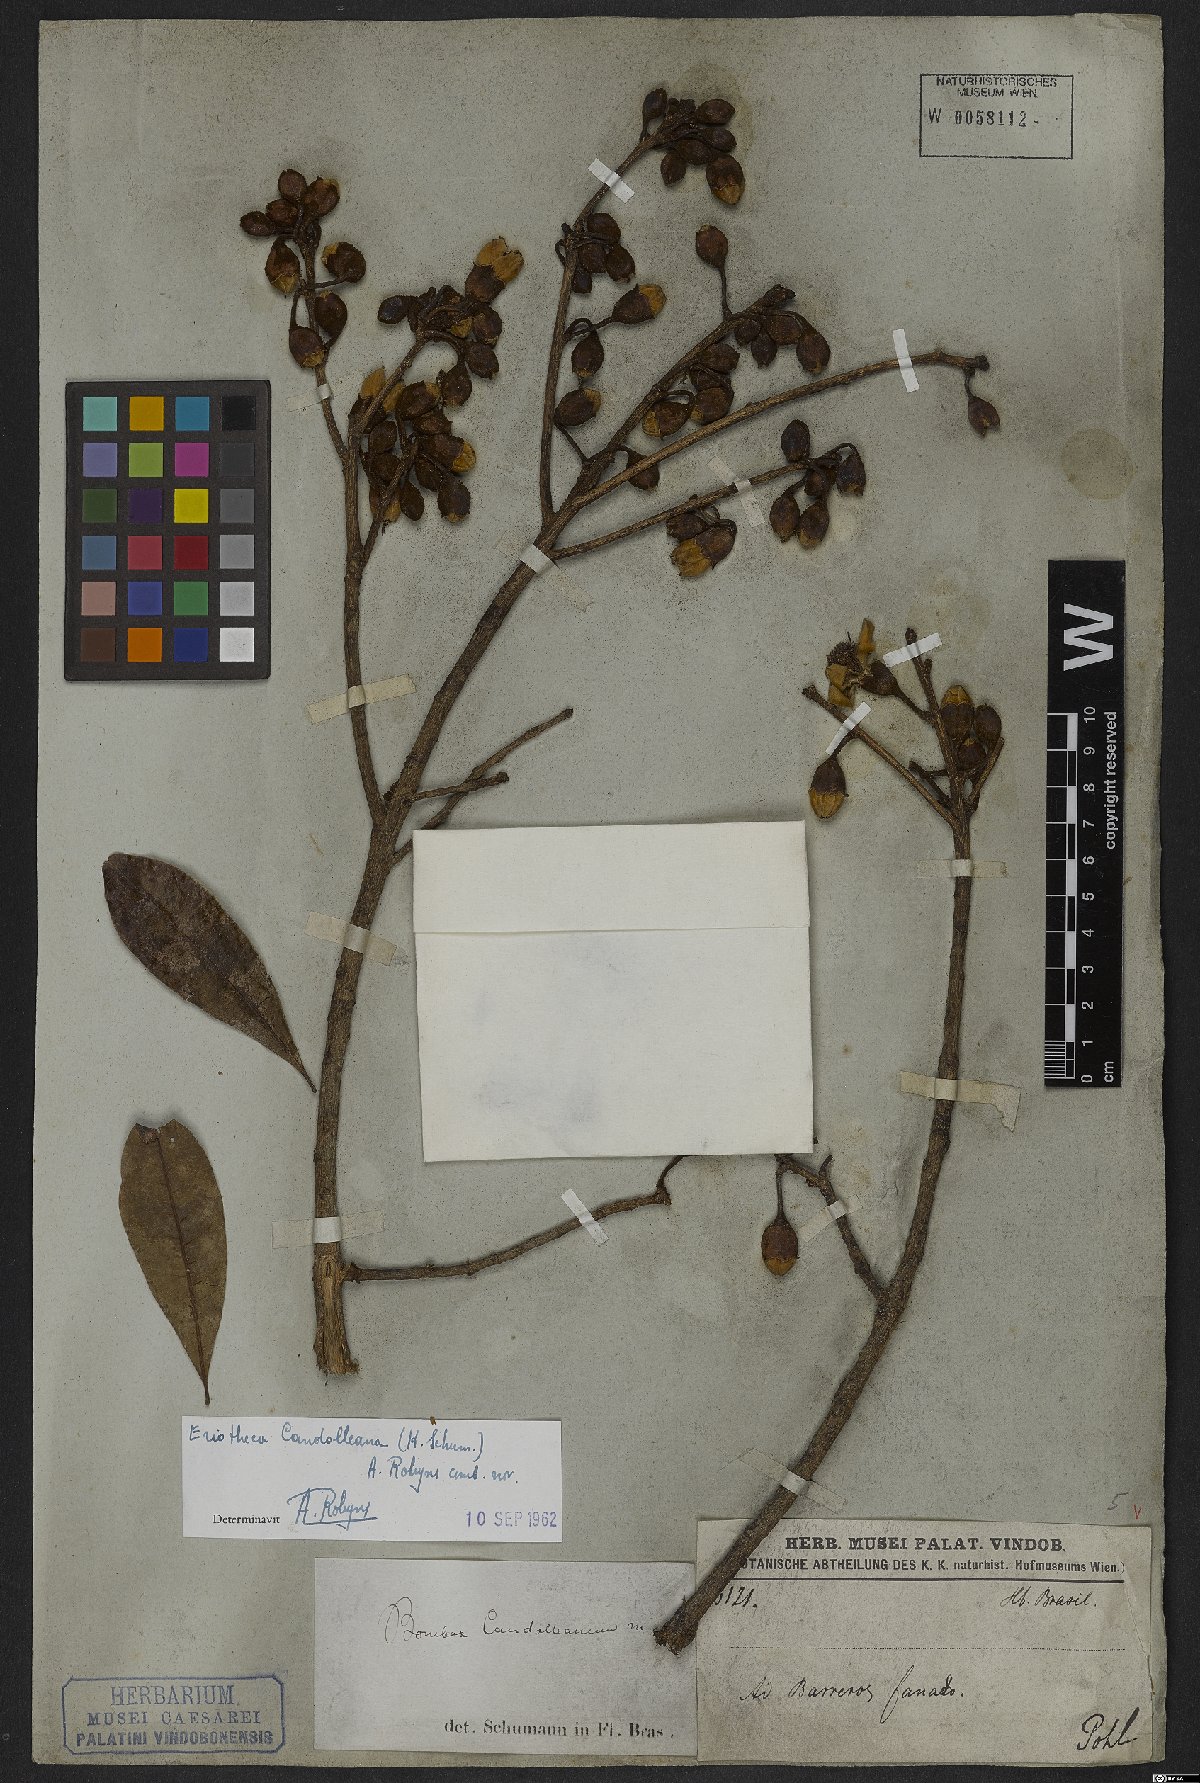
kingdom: Plantae
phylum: Tracheophyta
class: Magnoliopsida
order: Malvales
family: Malvaceae
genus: Eriotheca
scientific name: Eriotheca candolleana
